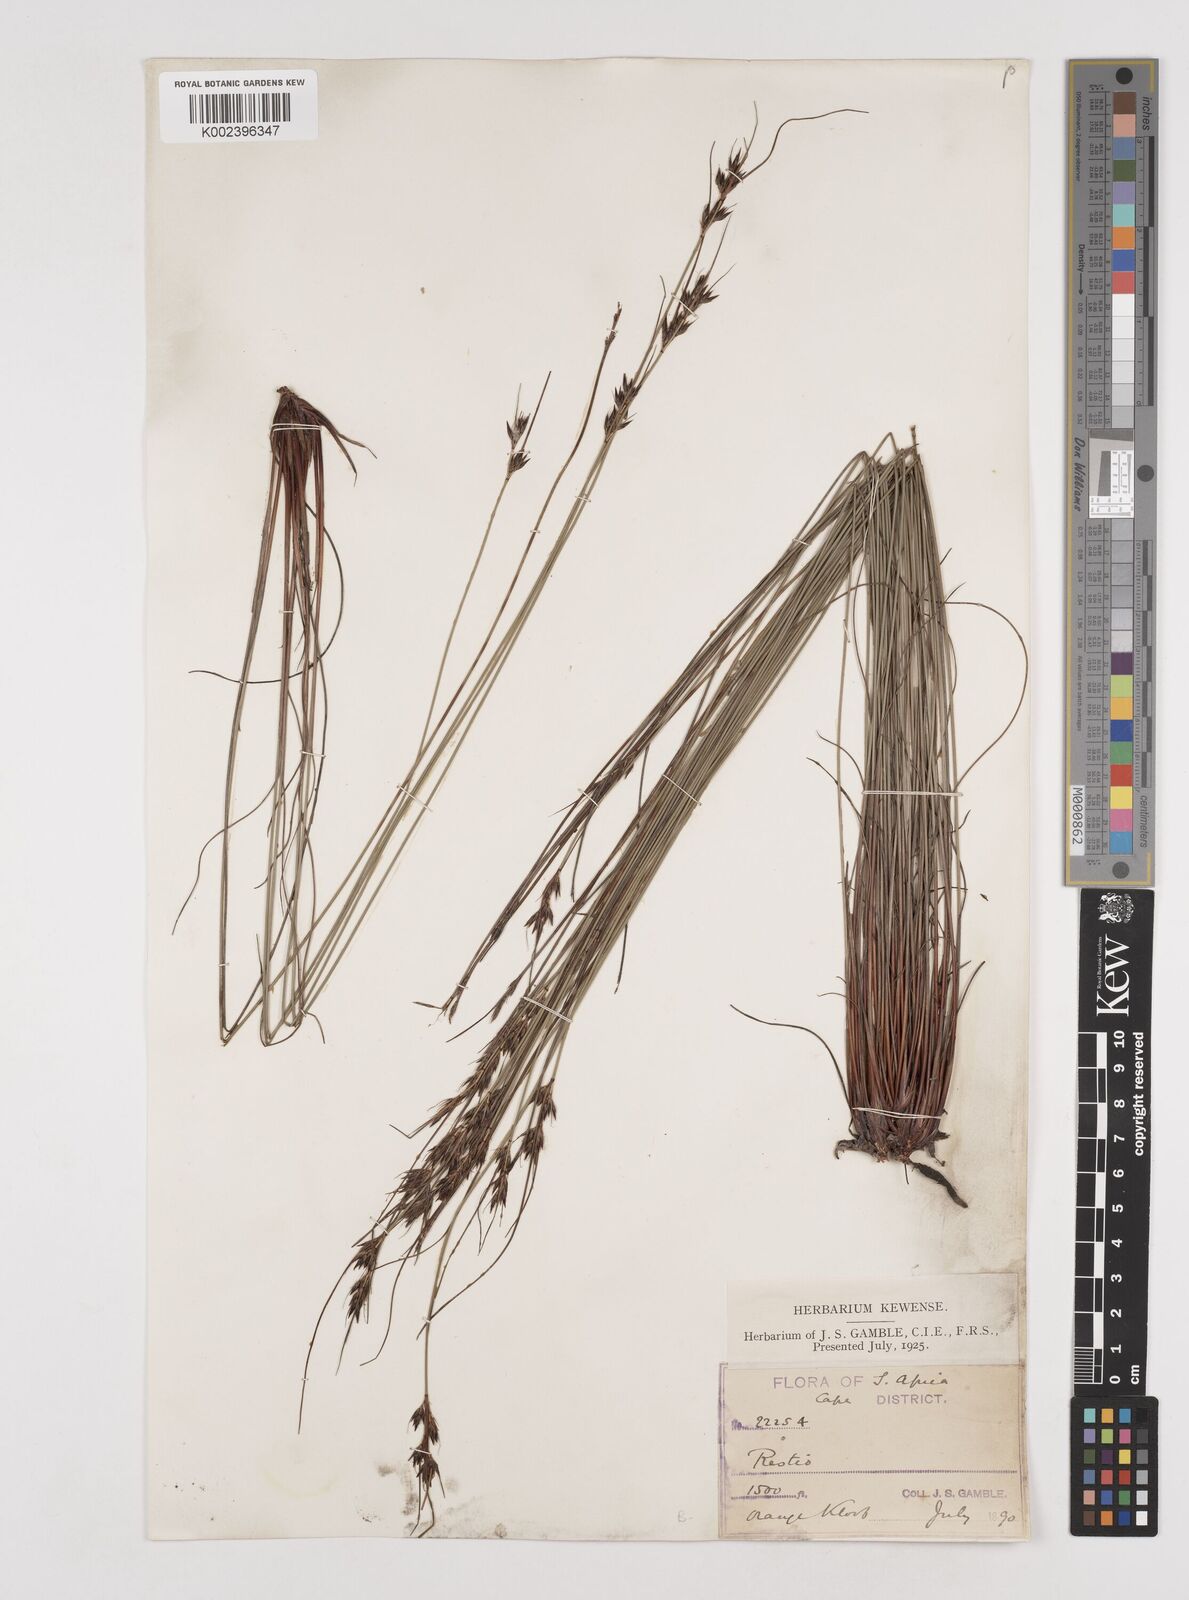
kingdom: Plantae
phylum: Tracheophyta
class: Liliopsida
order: Poales
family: Cyperaceae
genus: Schoenus
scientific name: Schoenus cuspidatus
